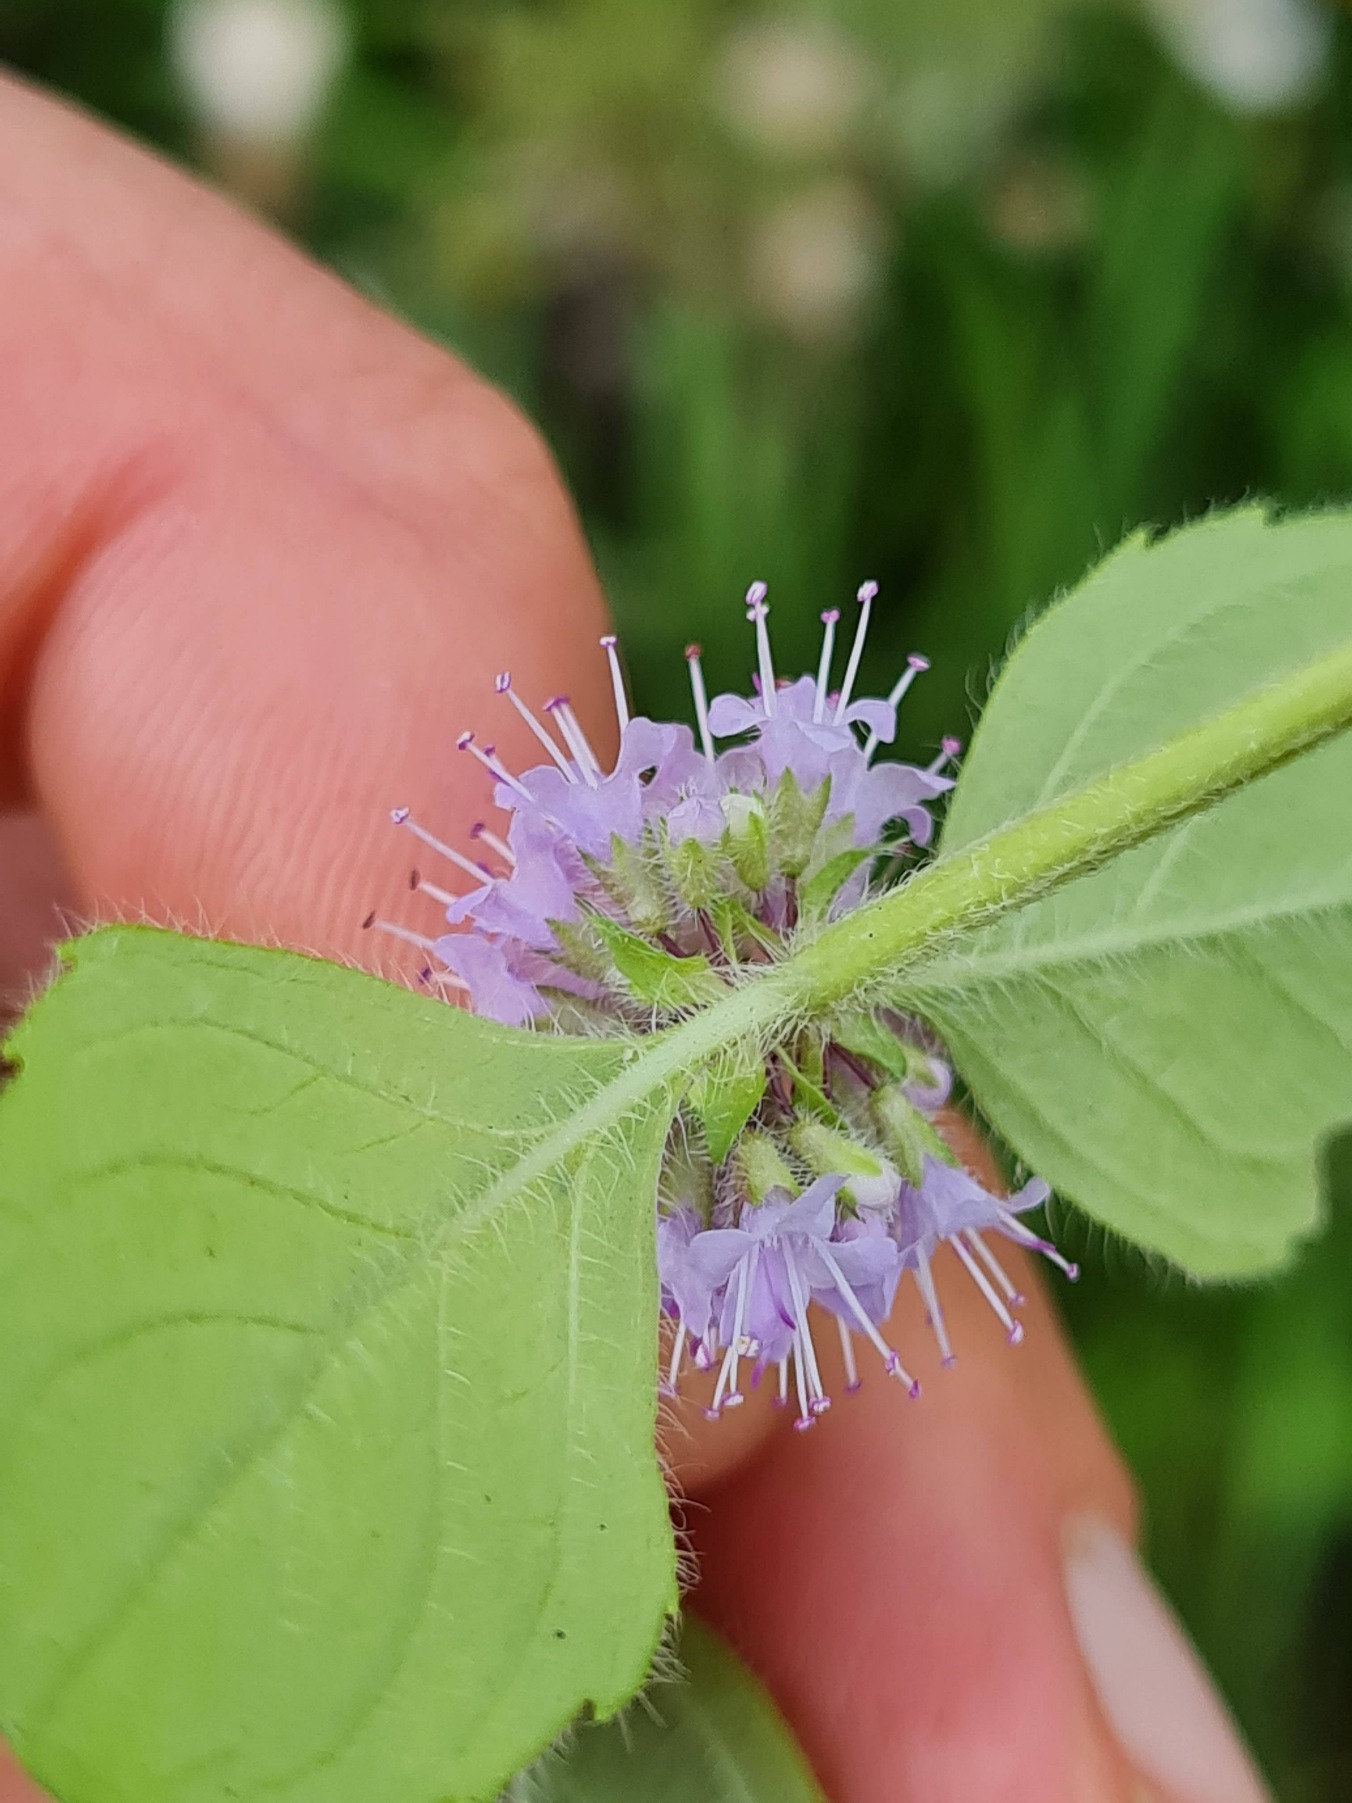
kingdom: Plantae
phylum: Tracheophyta
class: Magnoliopsida
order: Lamiales
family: Lamiaceae
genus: Mentha
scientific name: Mentha arvensis
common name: Ager-mynte
